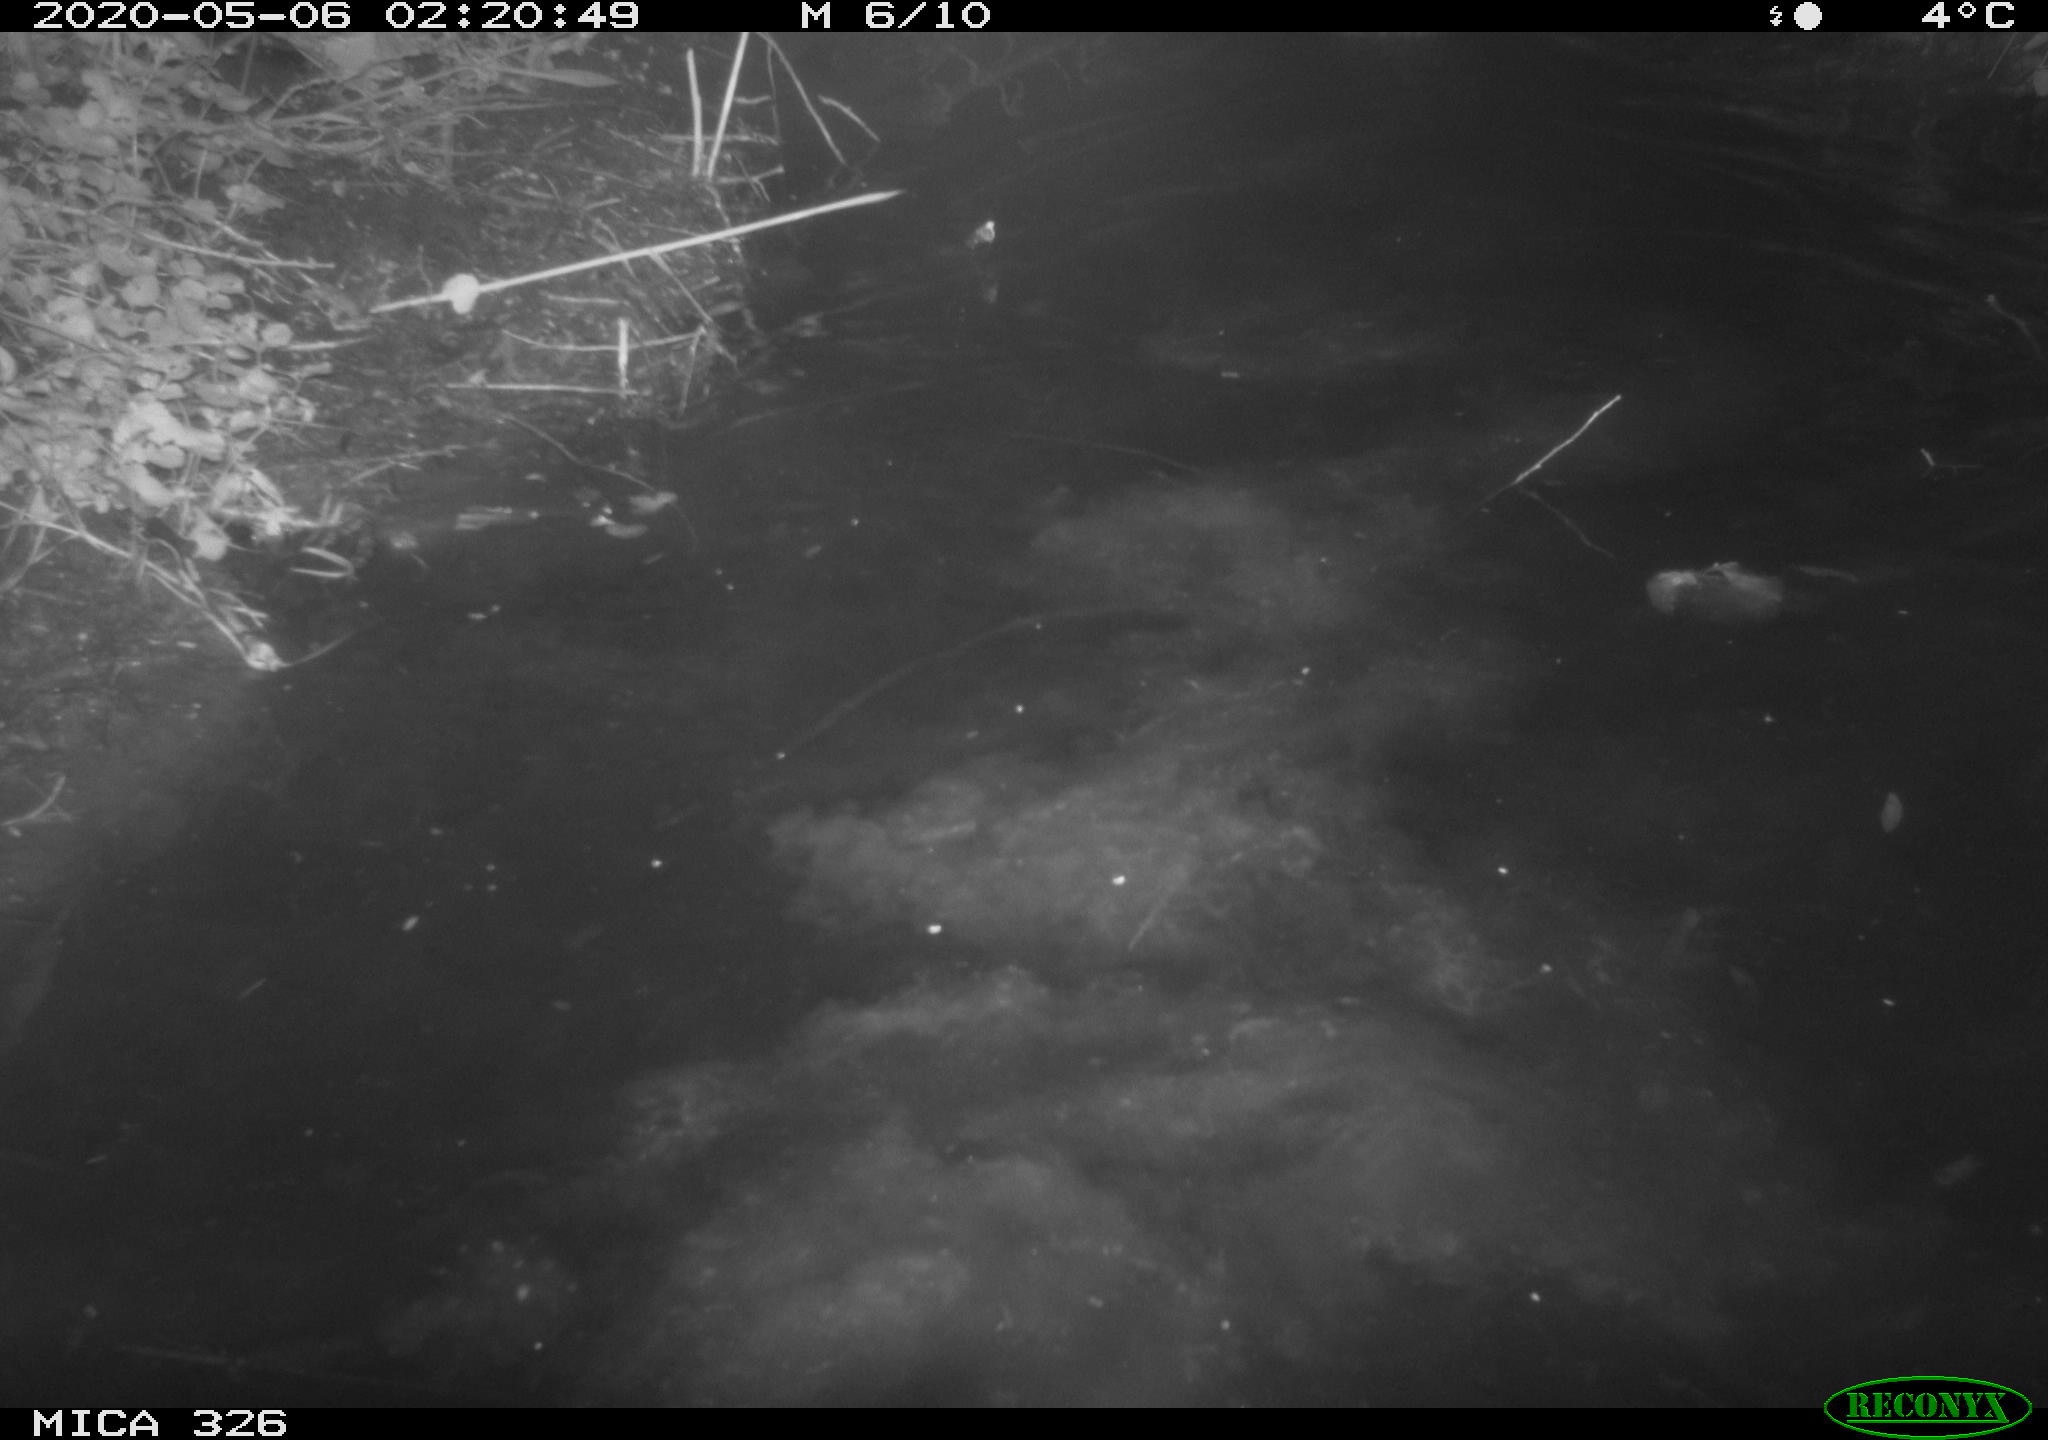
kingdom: Animalia
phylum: Chordata
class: Mammalia
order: Carnivora
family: Mustelidae
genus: Mustela
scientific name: Mustela putorius
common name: European polecat
